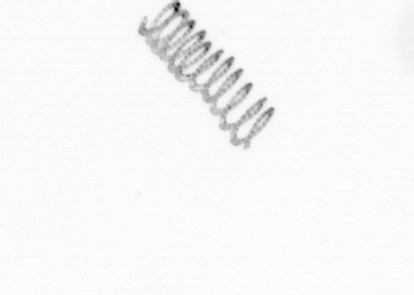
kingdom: Chromista
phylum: Ochrophyta
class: Bacillariophyceae
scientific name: Bacillariophyceae
